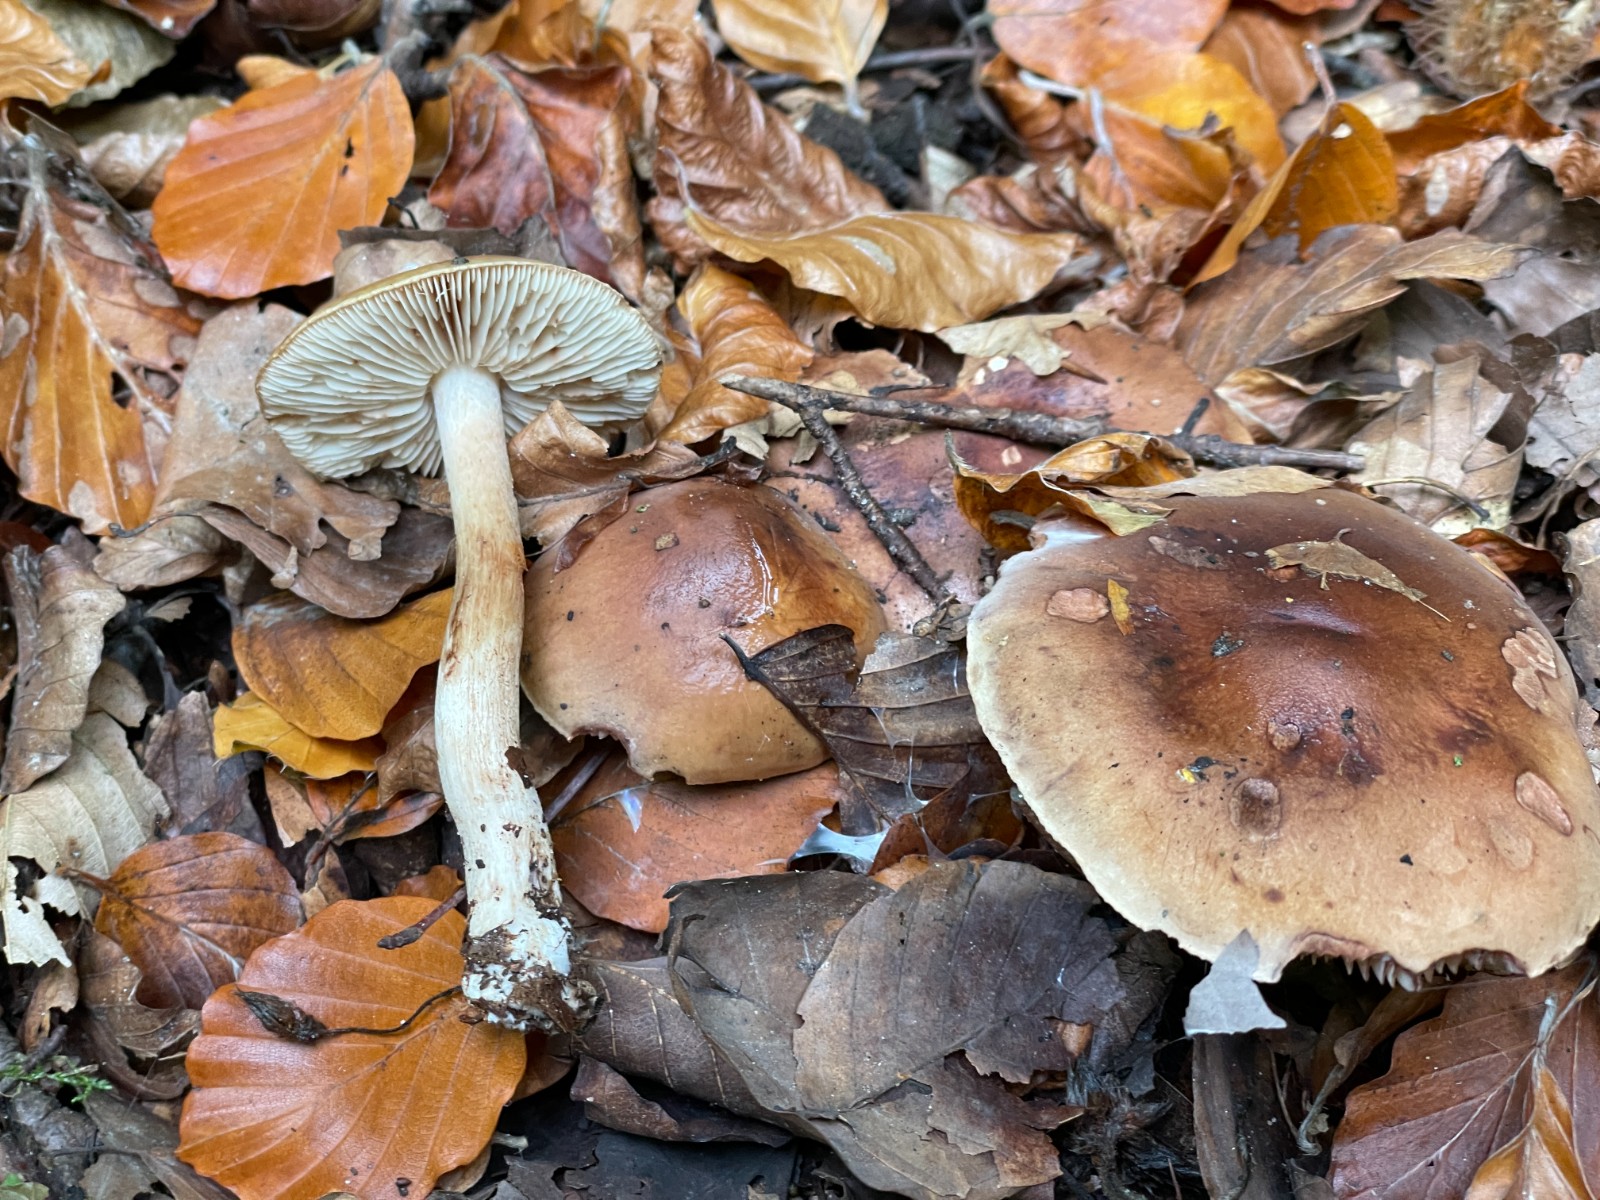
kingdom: Fungi
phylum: Basidiomycota
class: Agaricomycetes
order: Agaricales
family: Tricholomataceae
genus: Tricholoma
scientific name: Tricholoma ustale
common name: sveden ridderhat
